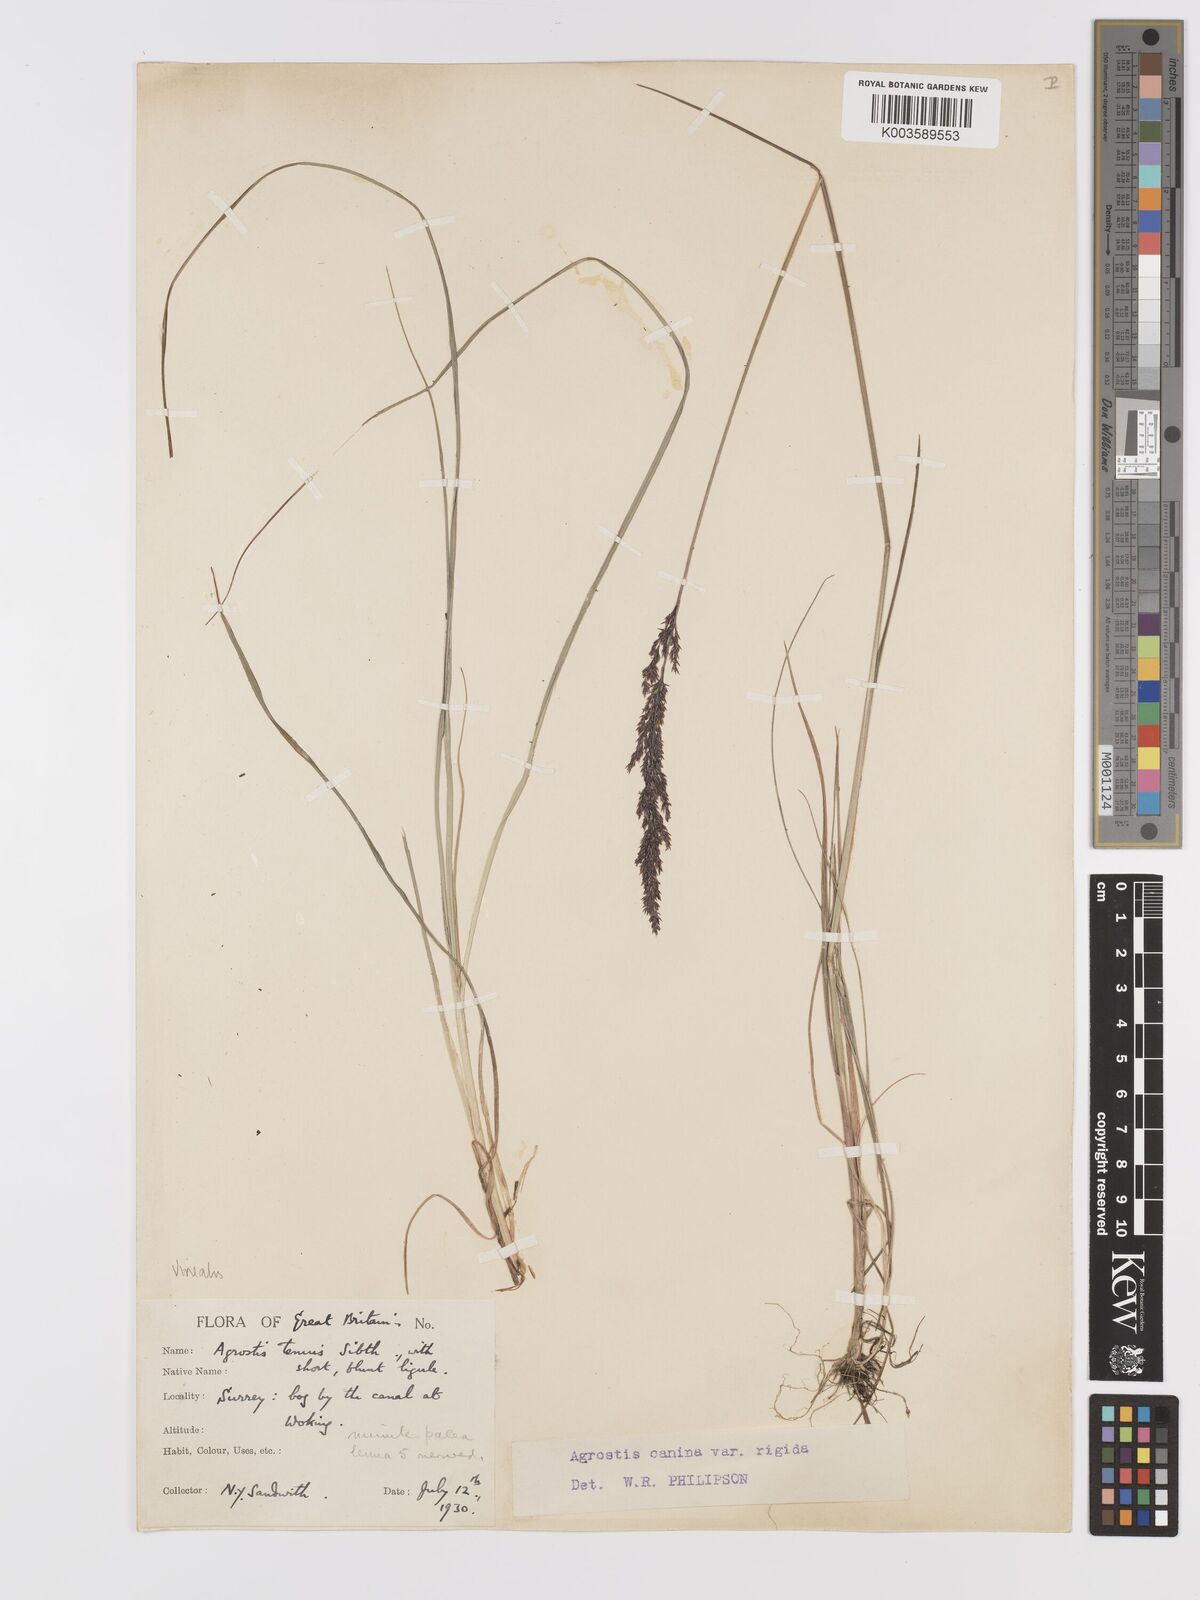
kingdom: Plantae
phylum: Tracheophyta
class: Liliopsida
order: Poales
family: Poaceae
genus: Agrostis
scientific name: Agrostis
